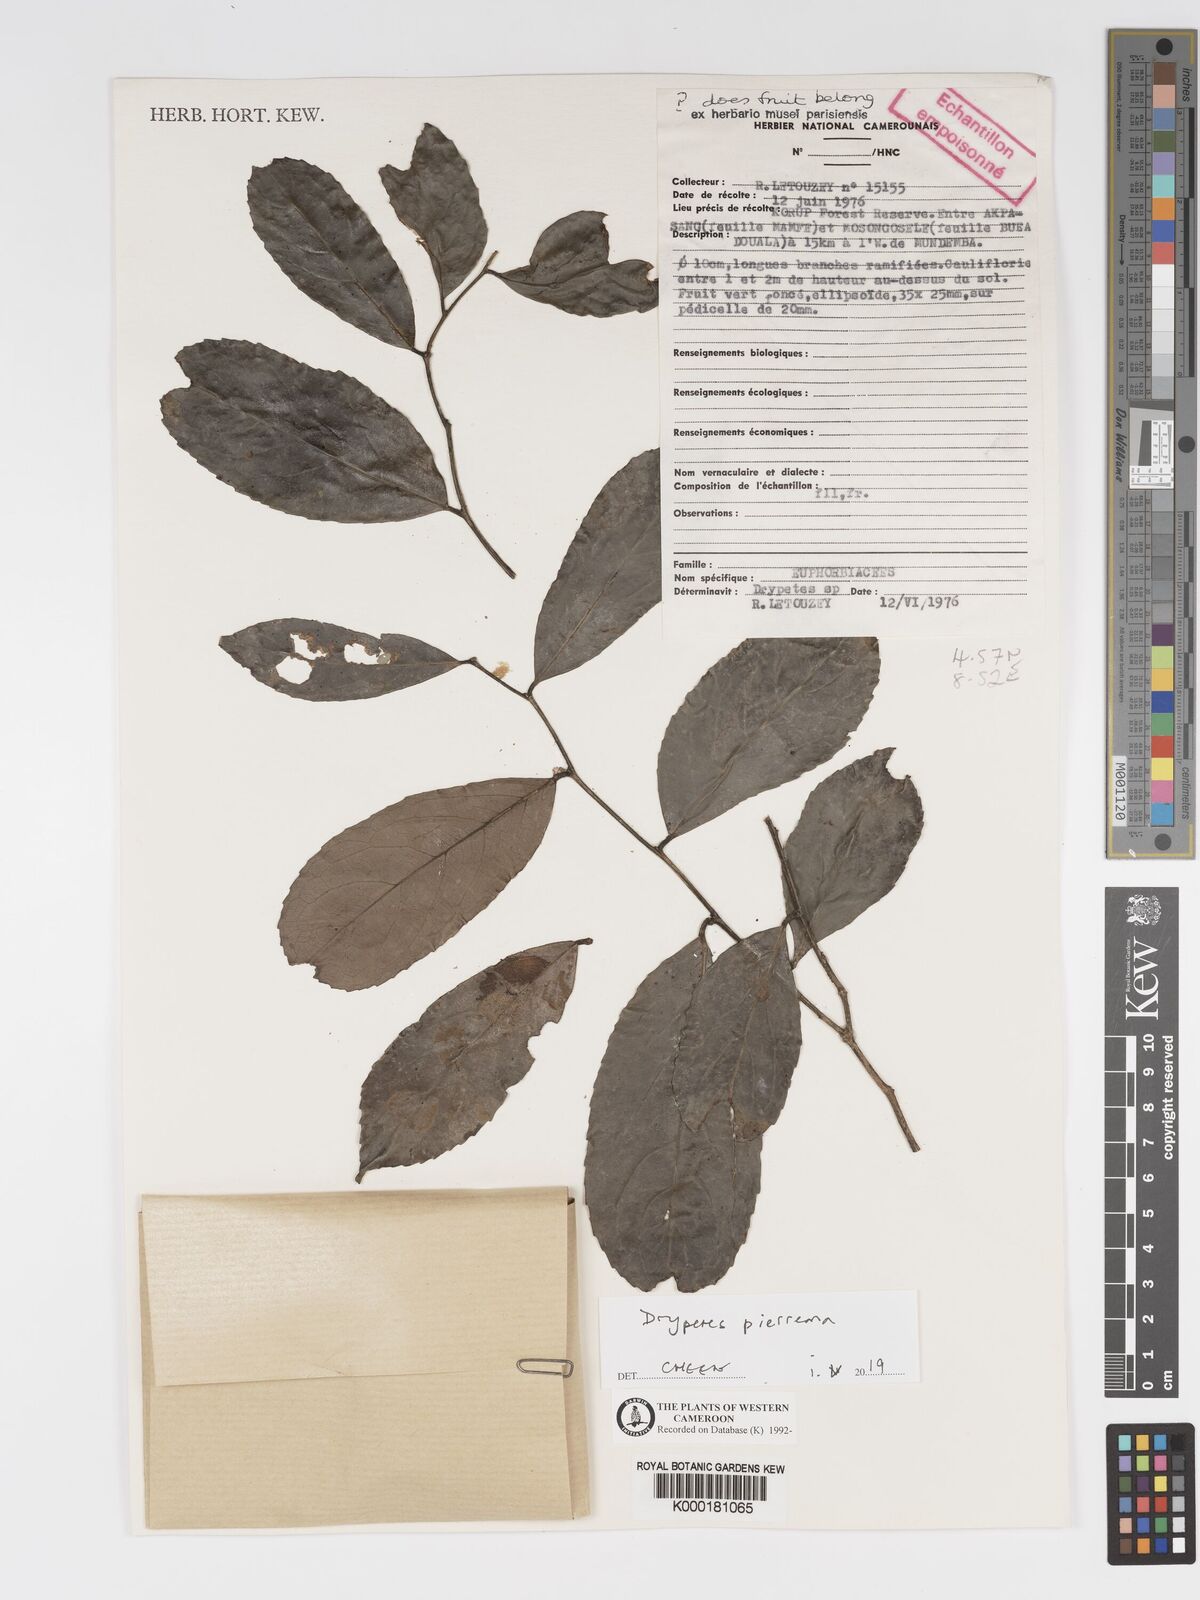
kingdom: Plantae
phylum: Tracheophyta
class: Magnoliopsida
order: Malpighiales
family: Putranjivaceae
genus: Drypetes
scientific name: Drypetes
